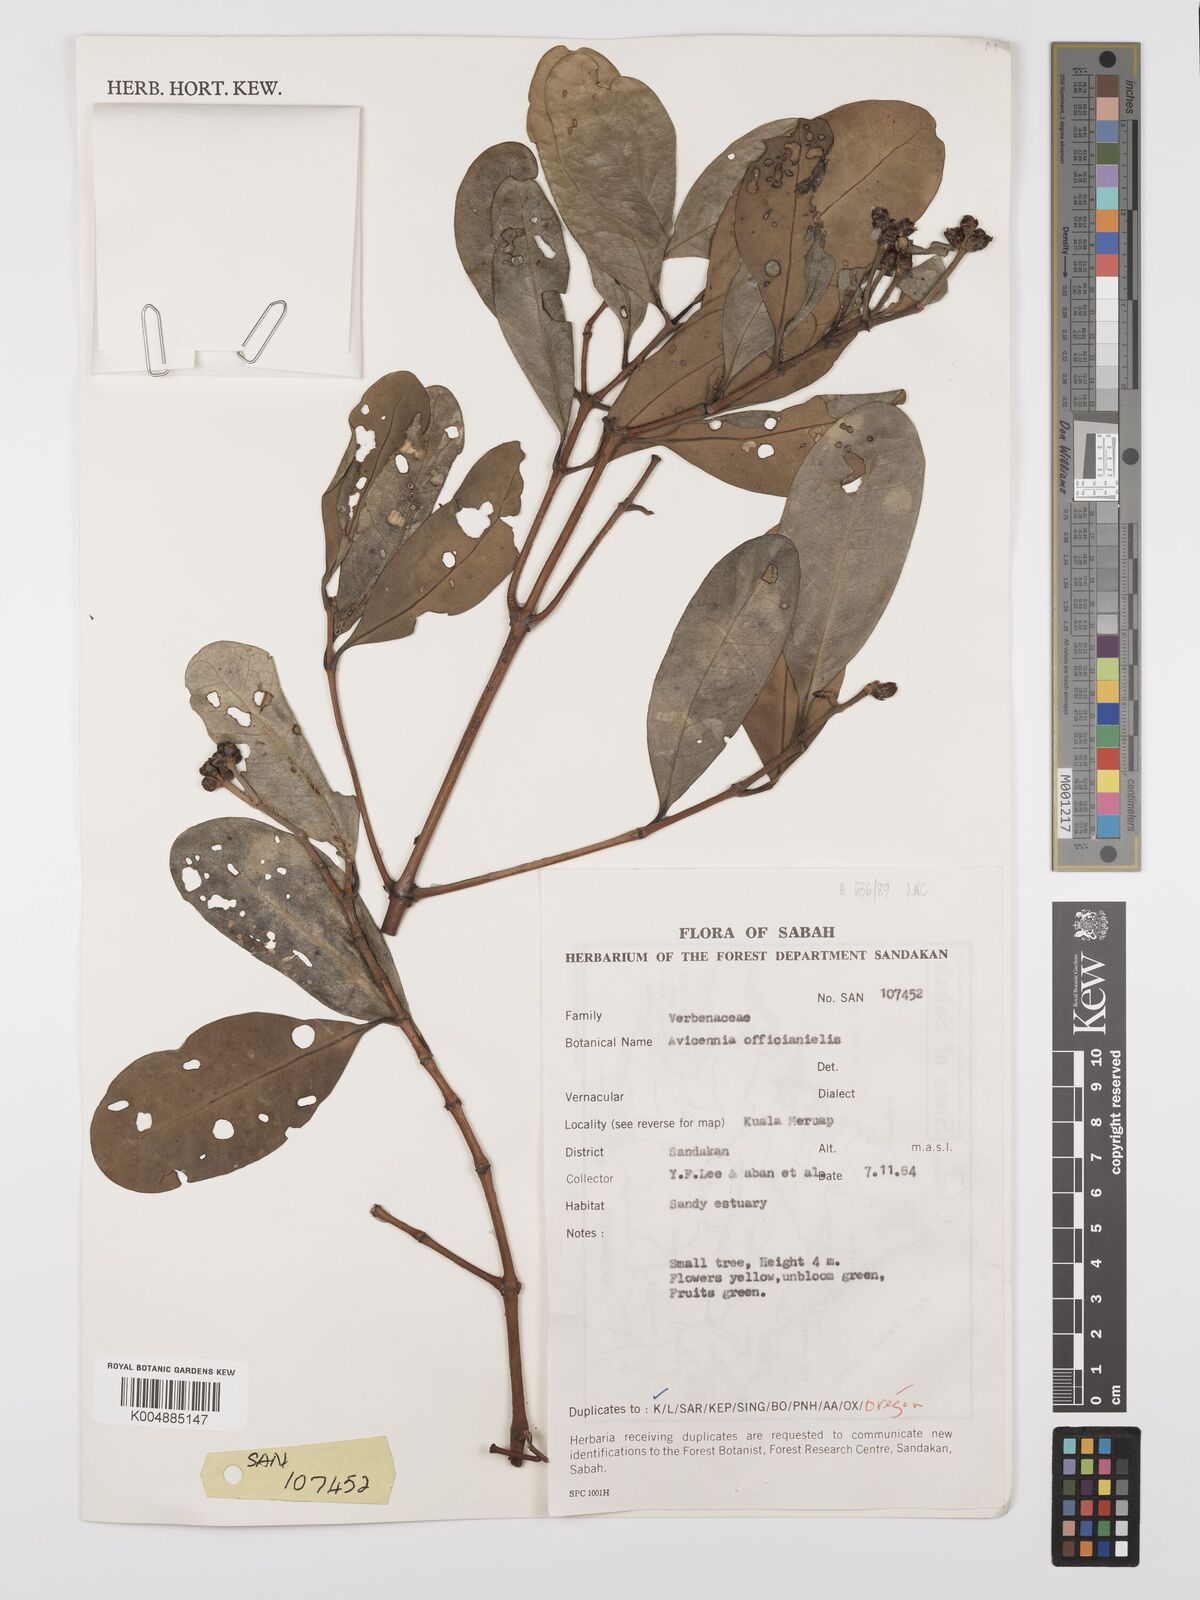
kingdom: Plantae
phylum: Tracheophyta
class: Magnoliopsida
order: Lamiales
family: Acanthaceae
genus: Avicennia
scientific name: Avicennia officinalis
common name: Baen
